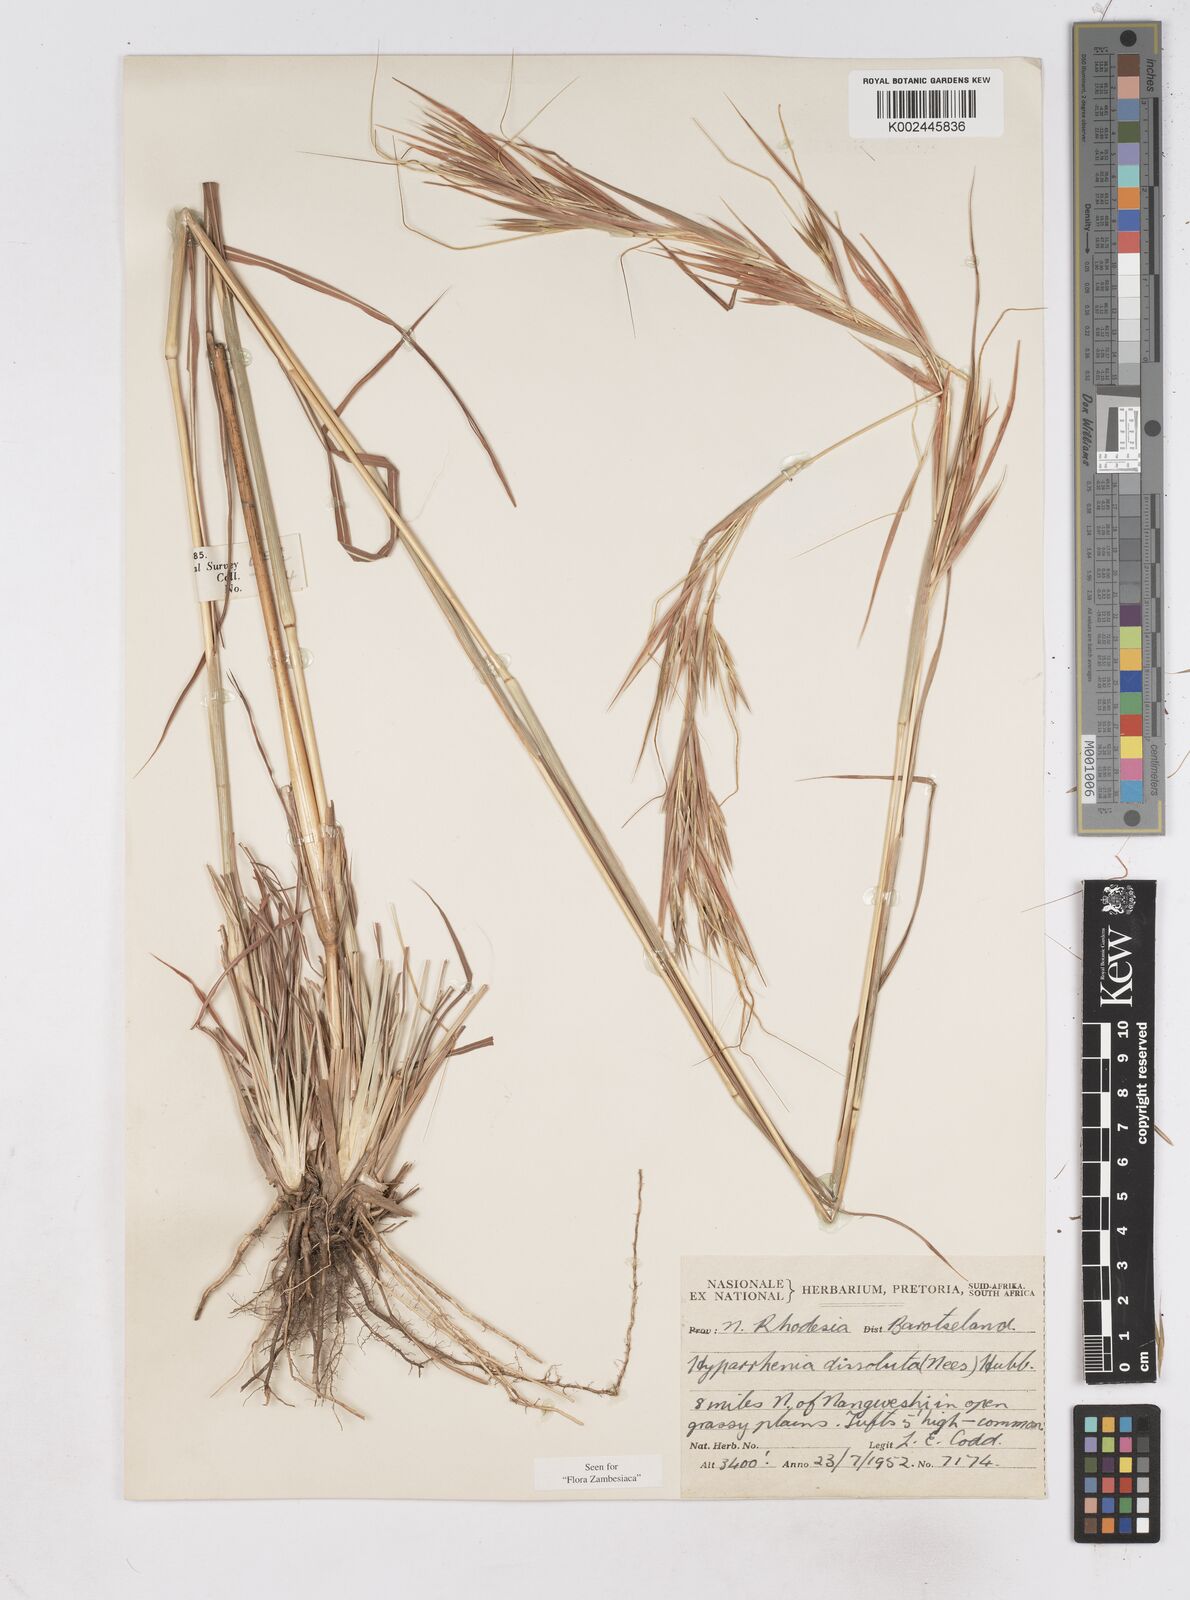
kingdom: Plantae
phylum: Tracheophyta
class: Liliopsida
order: Poales
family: Poaceae
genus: Hyperthelia
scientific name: Hyperthelia dissoluta
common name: Yellow thatching grass
